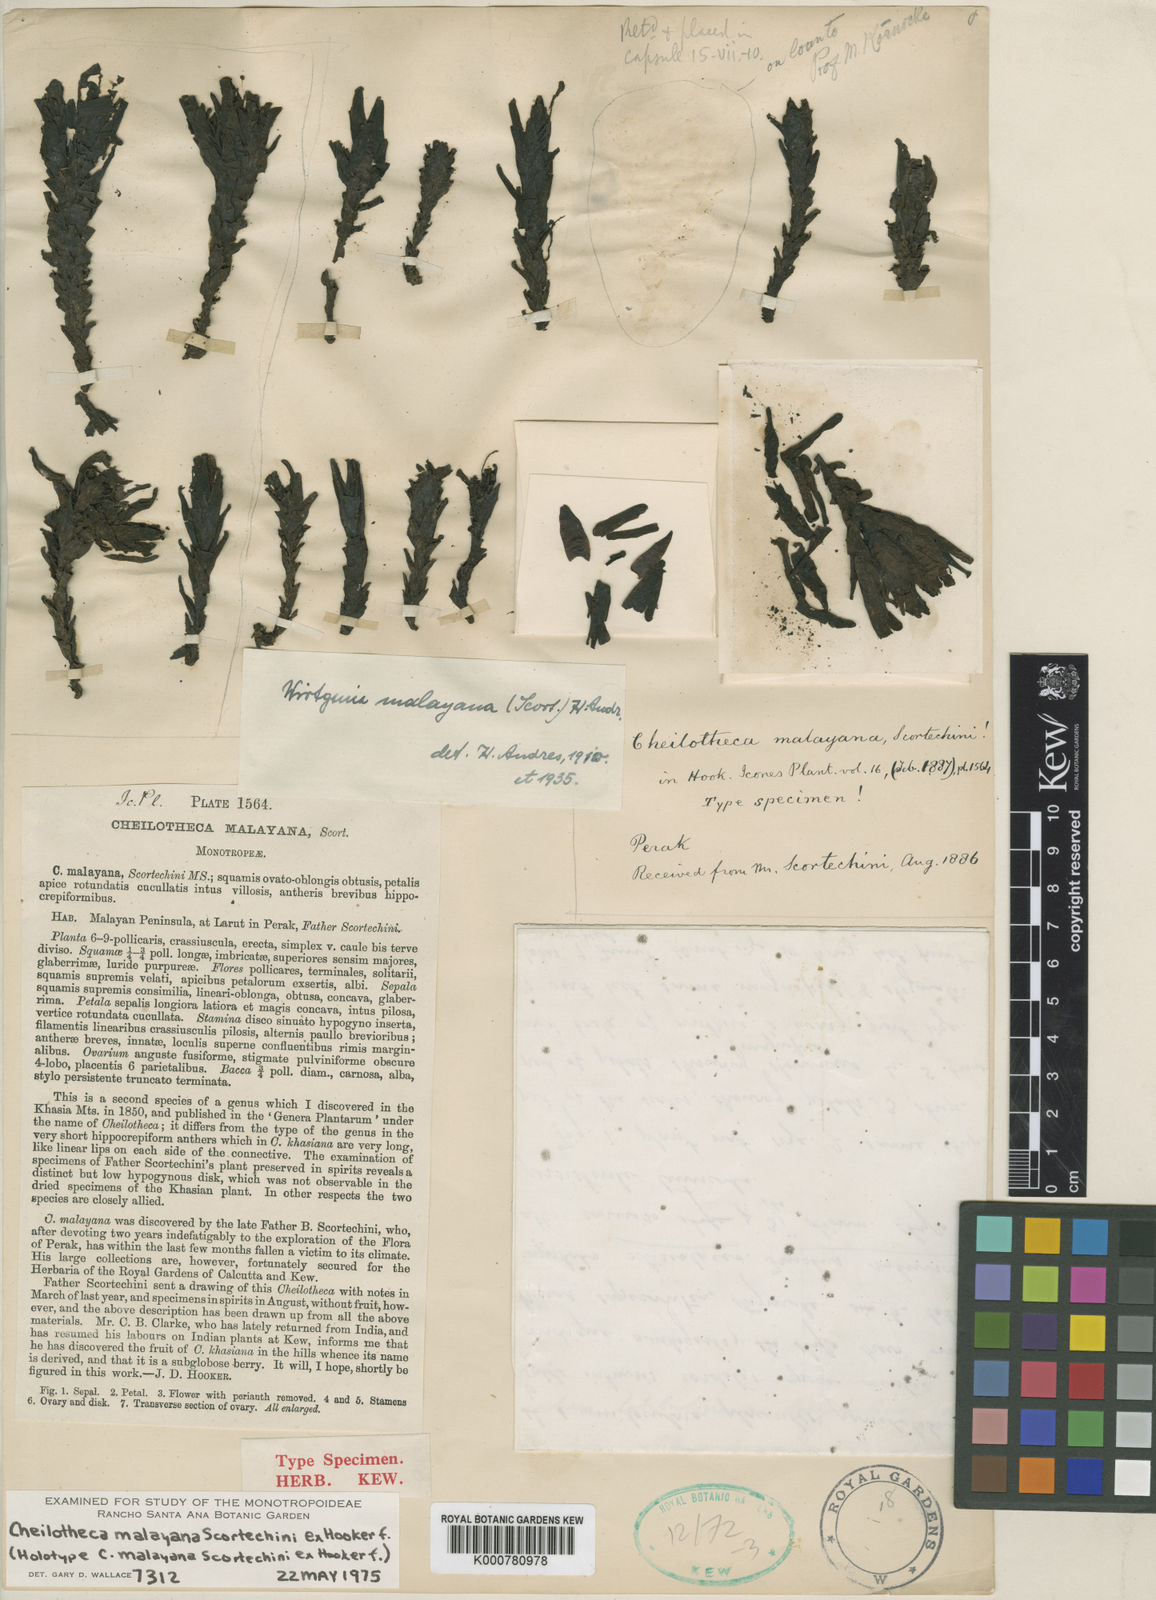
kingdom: Plantae
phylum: Tracheophyta
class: Magnoliopsida
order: Ericales
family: Ericaceae
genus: Cheilotheca
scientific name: Cheilotheca malayana
